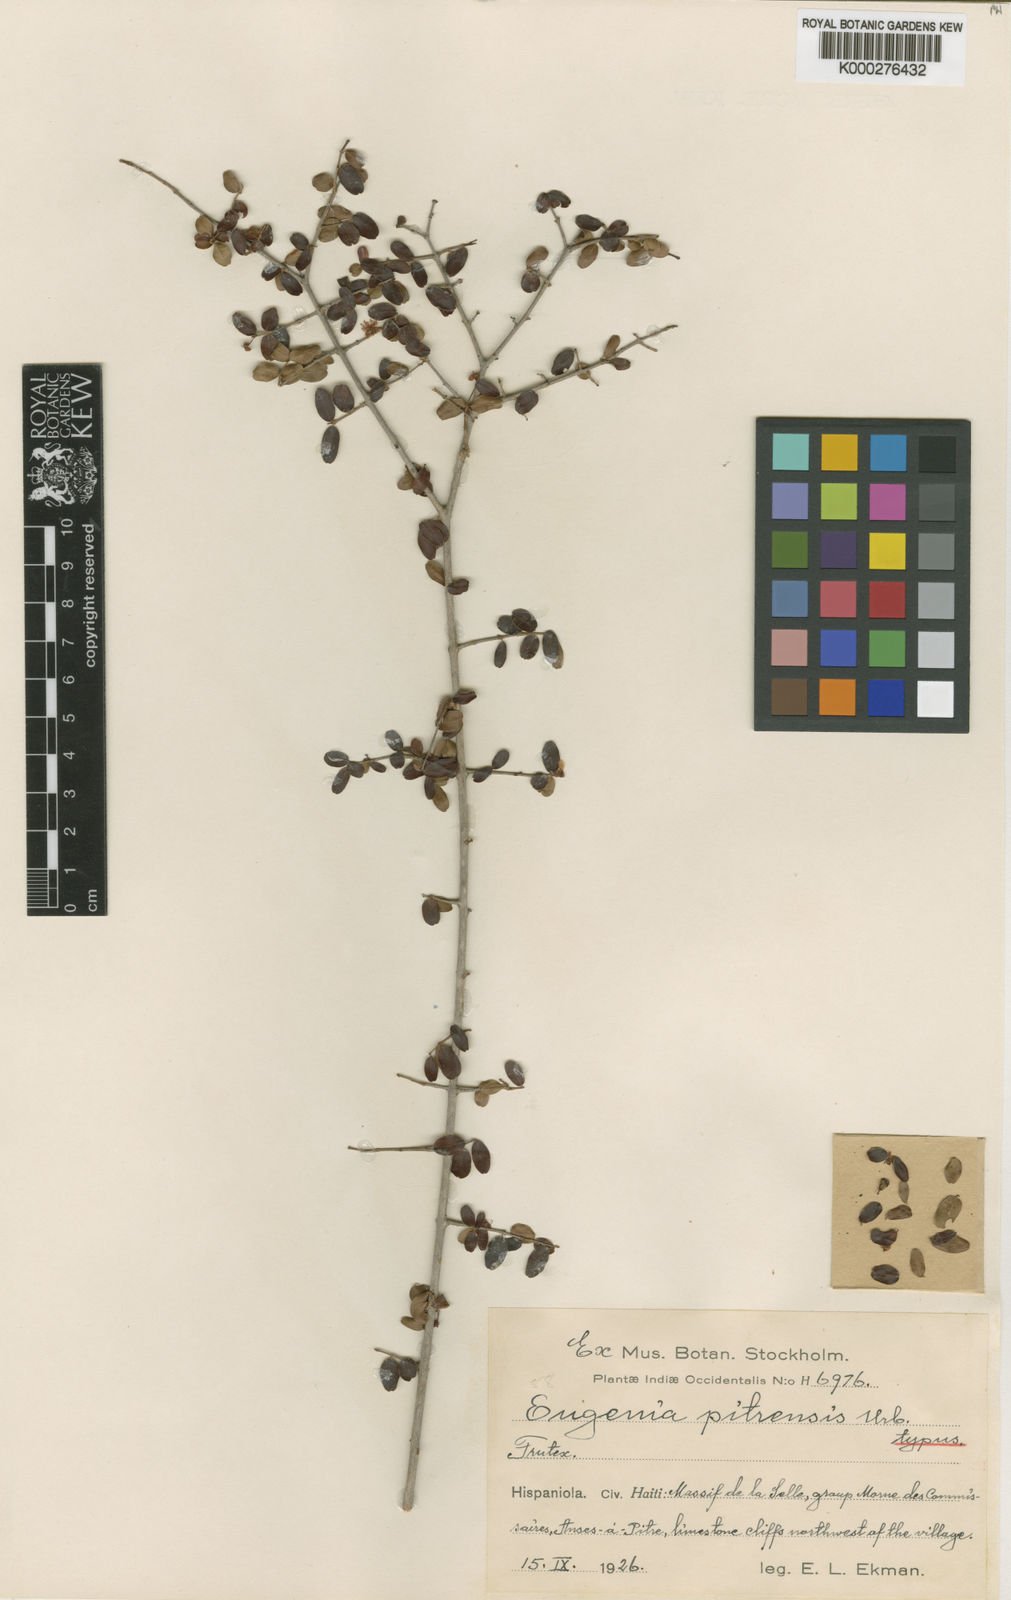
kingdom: Plantae
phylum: Tracheophyta
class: Magnoliopsida
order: Myrtales
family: Myrtaceae
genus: Eugenia
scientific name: Eugenia pitrensis
